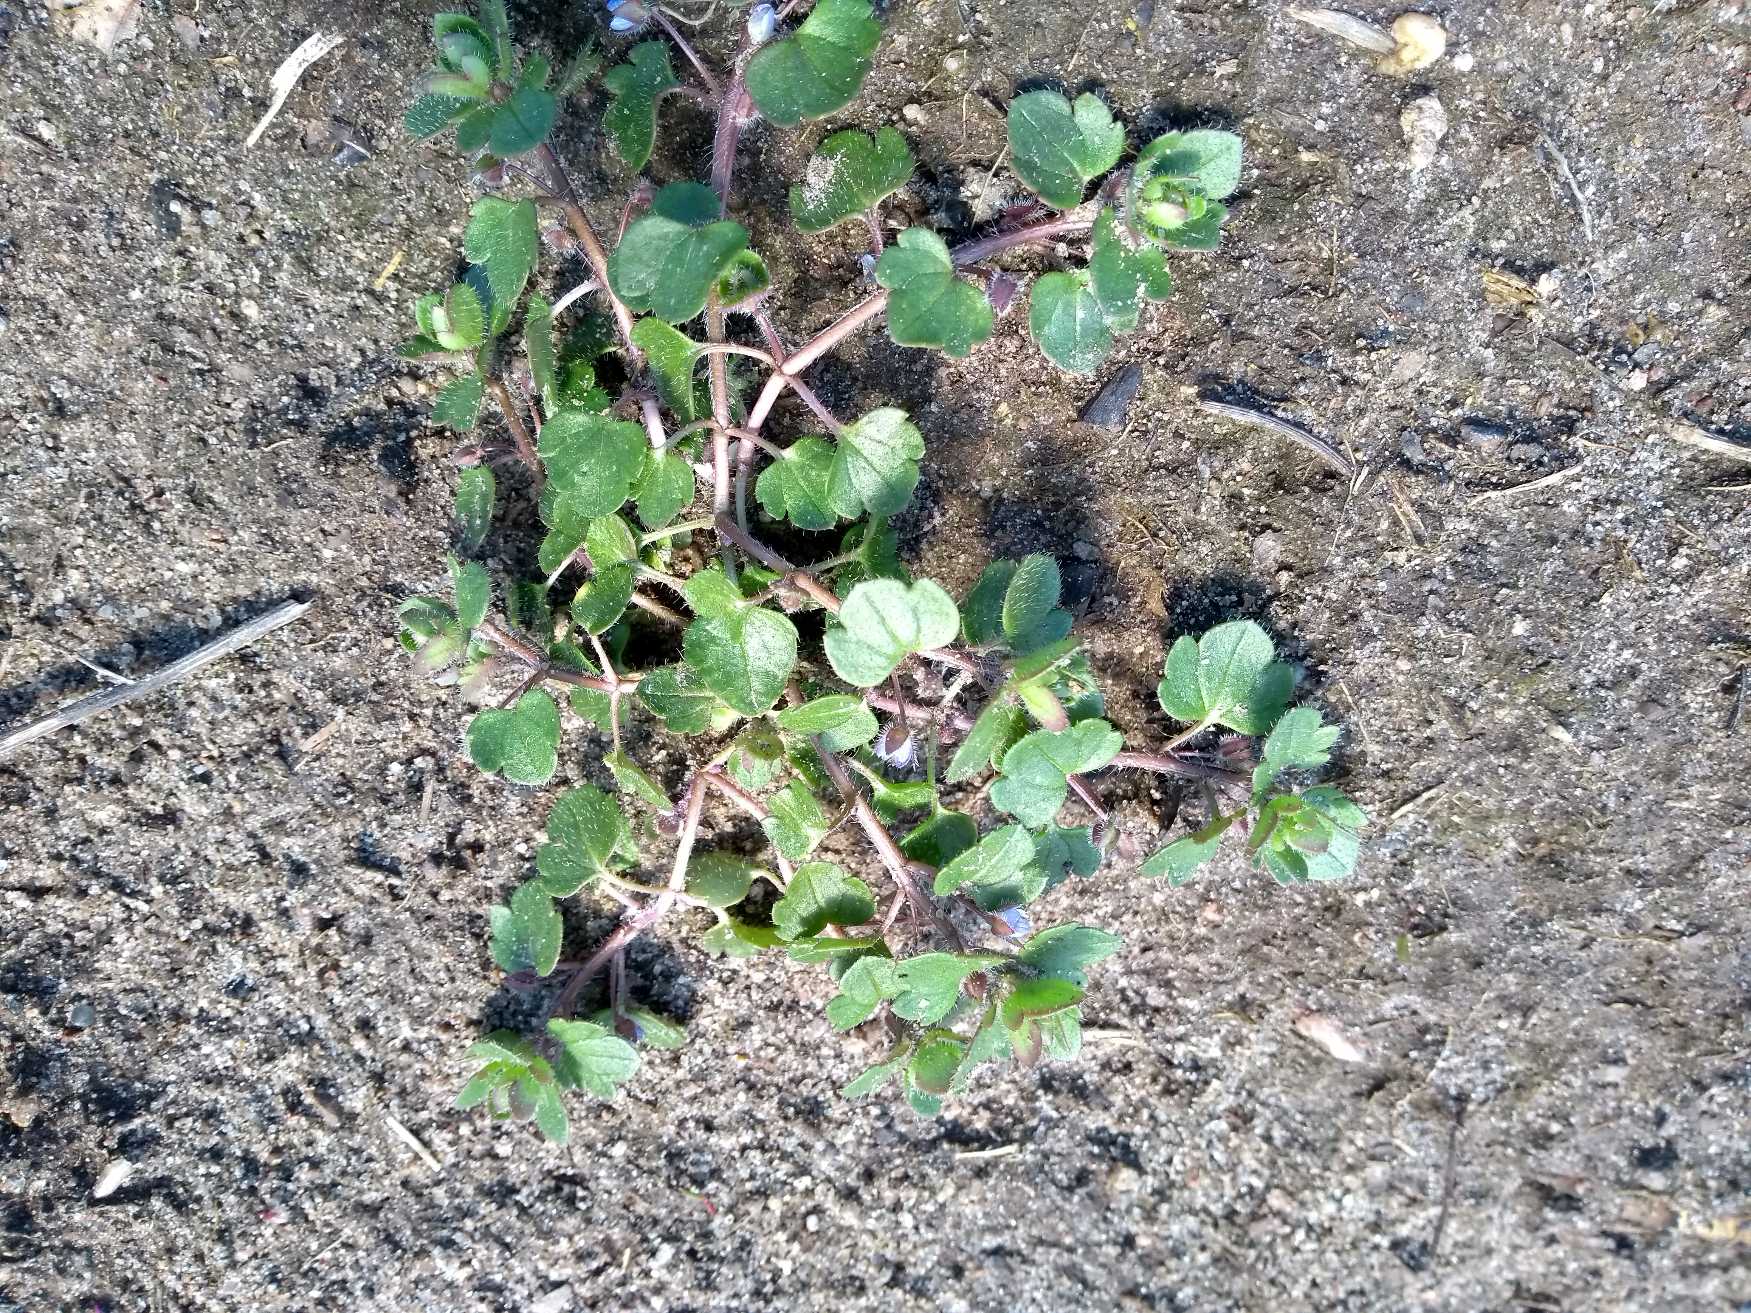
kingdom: Plantae
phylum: Tracheophyta
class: Magnoliopsida
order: Lamiales
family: Plantaginaceae
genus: Veronica
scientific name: Veronica hederifolia
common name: Vedbend-ærenpris
